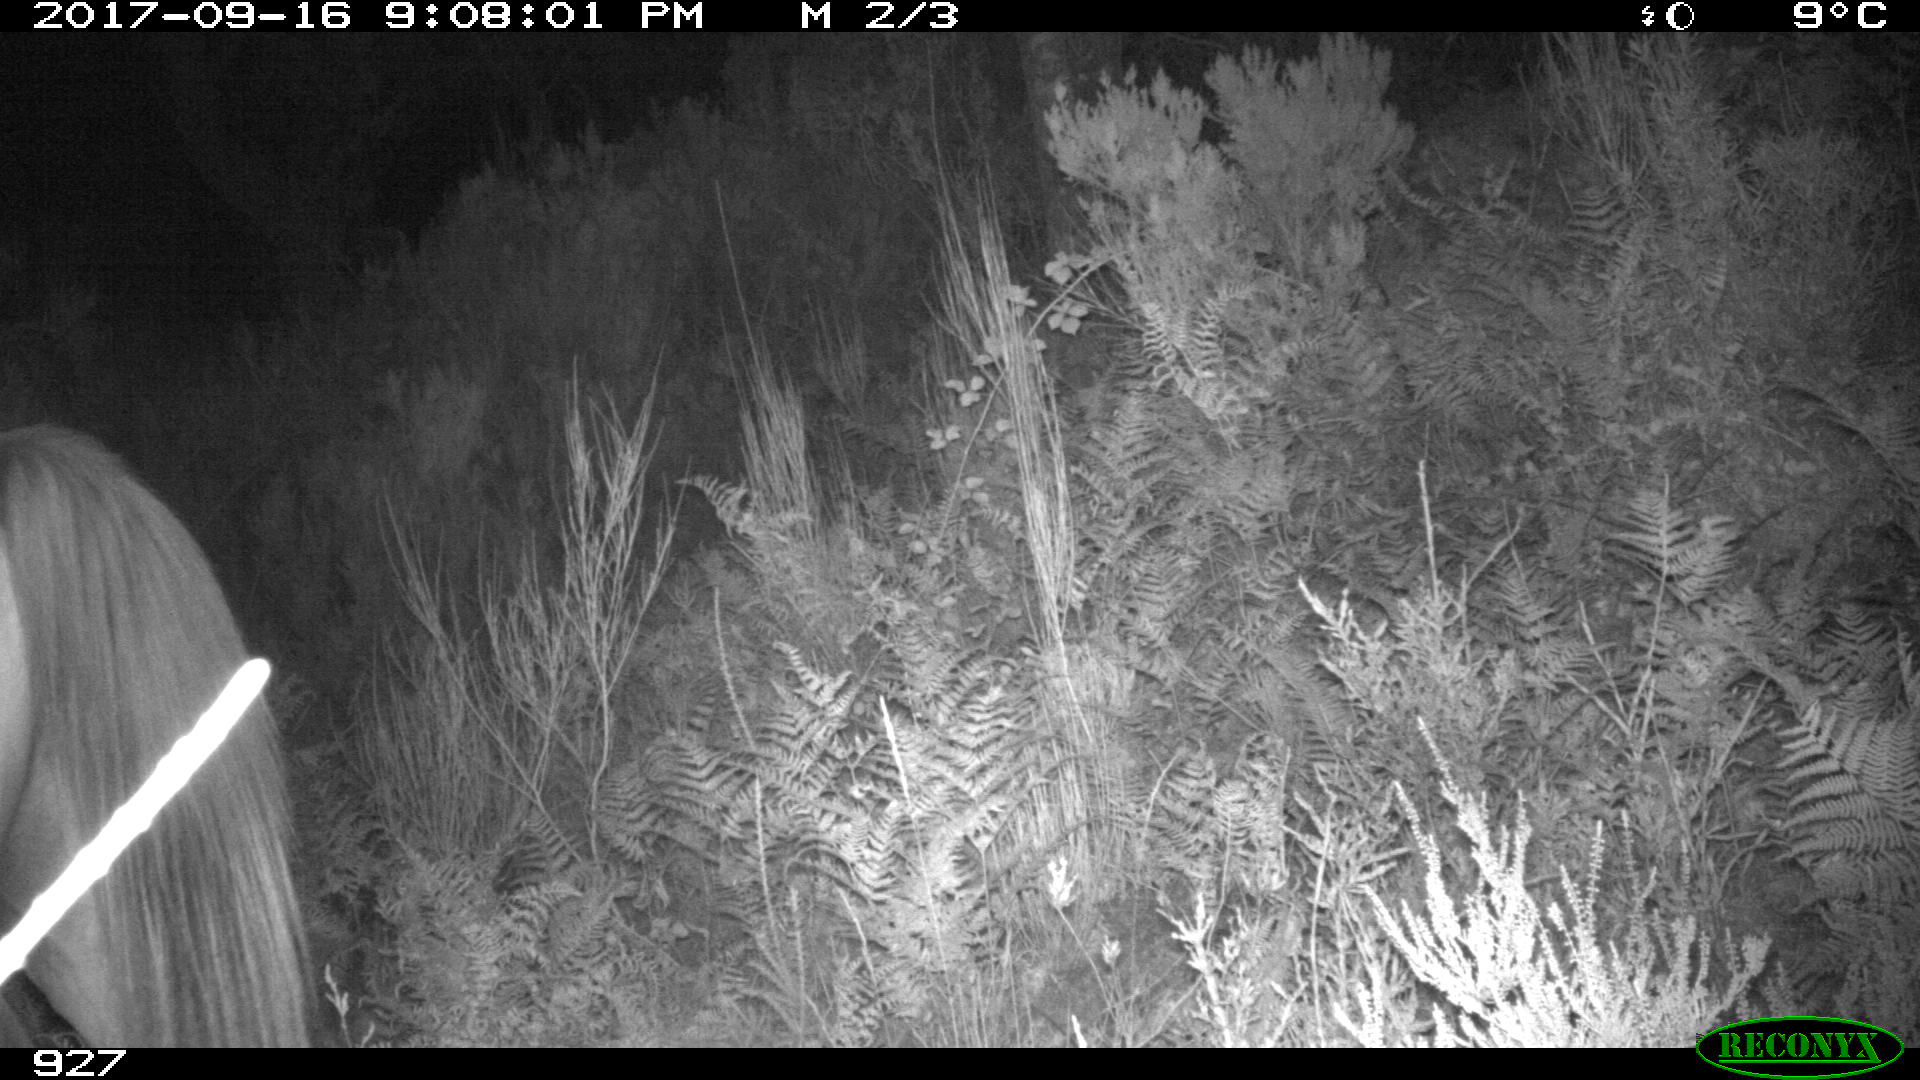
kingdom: Animalia
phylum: Chordata
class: Mammalia
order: Perissodactyla
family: Equidae
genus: Equus
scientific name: Equus caballus
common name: Horse
